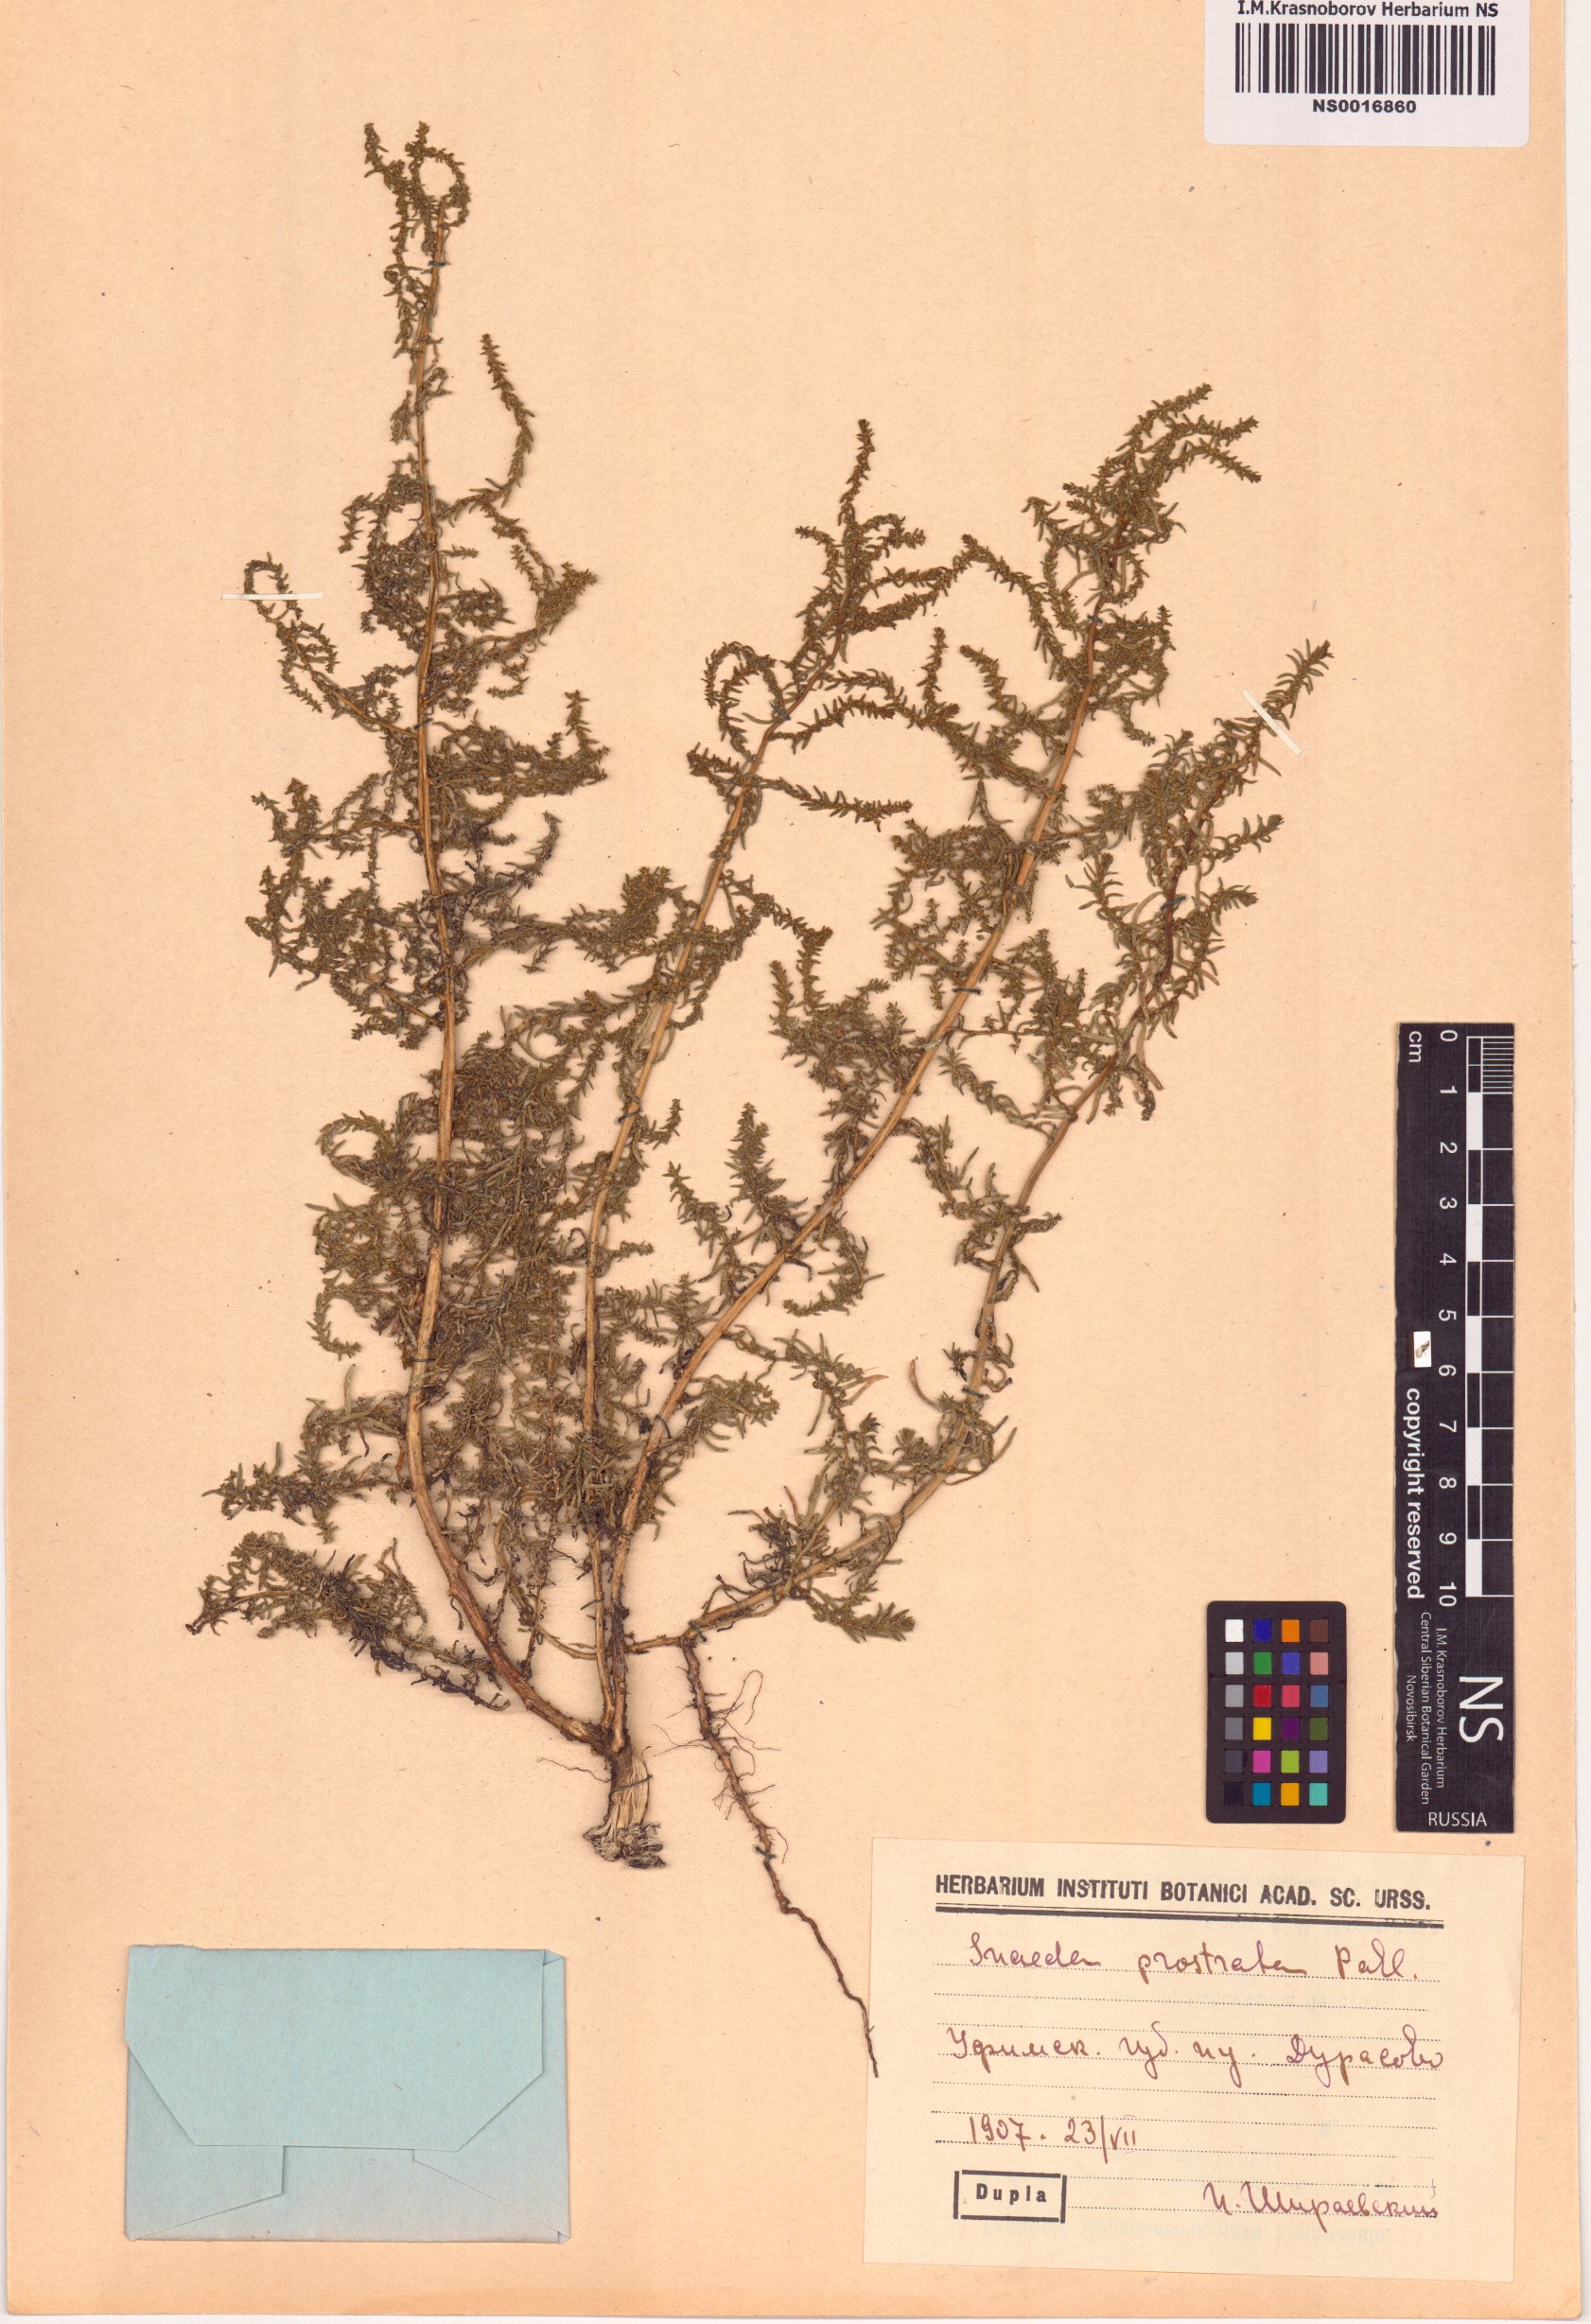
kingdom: Plantae
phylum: Tracheophyta
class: Magnoliopsida
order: Caryophyllales
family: Amaranthaceae
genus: Suaeda
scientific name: Suaeda prostrata
